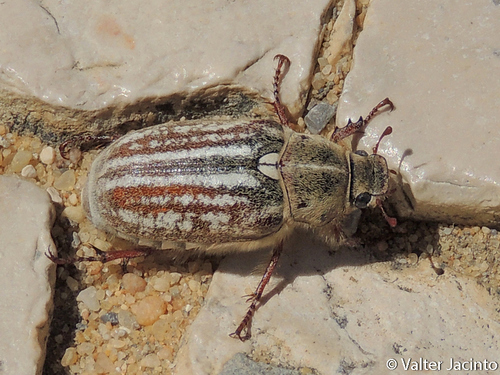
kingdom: Animalia
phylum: Arthropoda
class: Insecta
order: Coleoptera
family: Scarabaeidae
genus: Anoxia
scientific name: Anoxia australis
